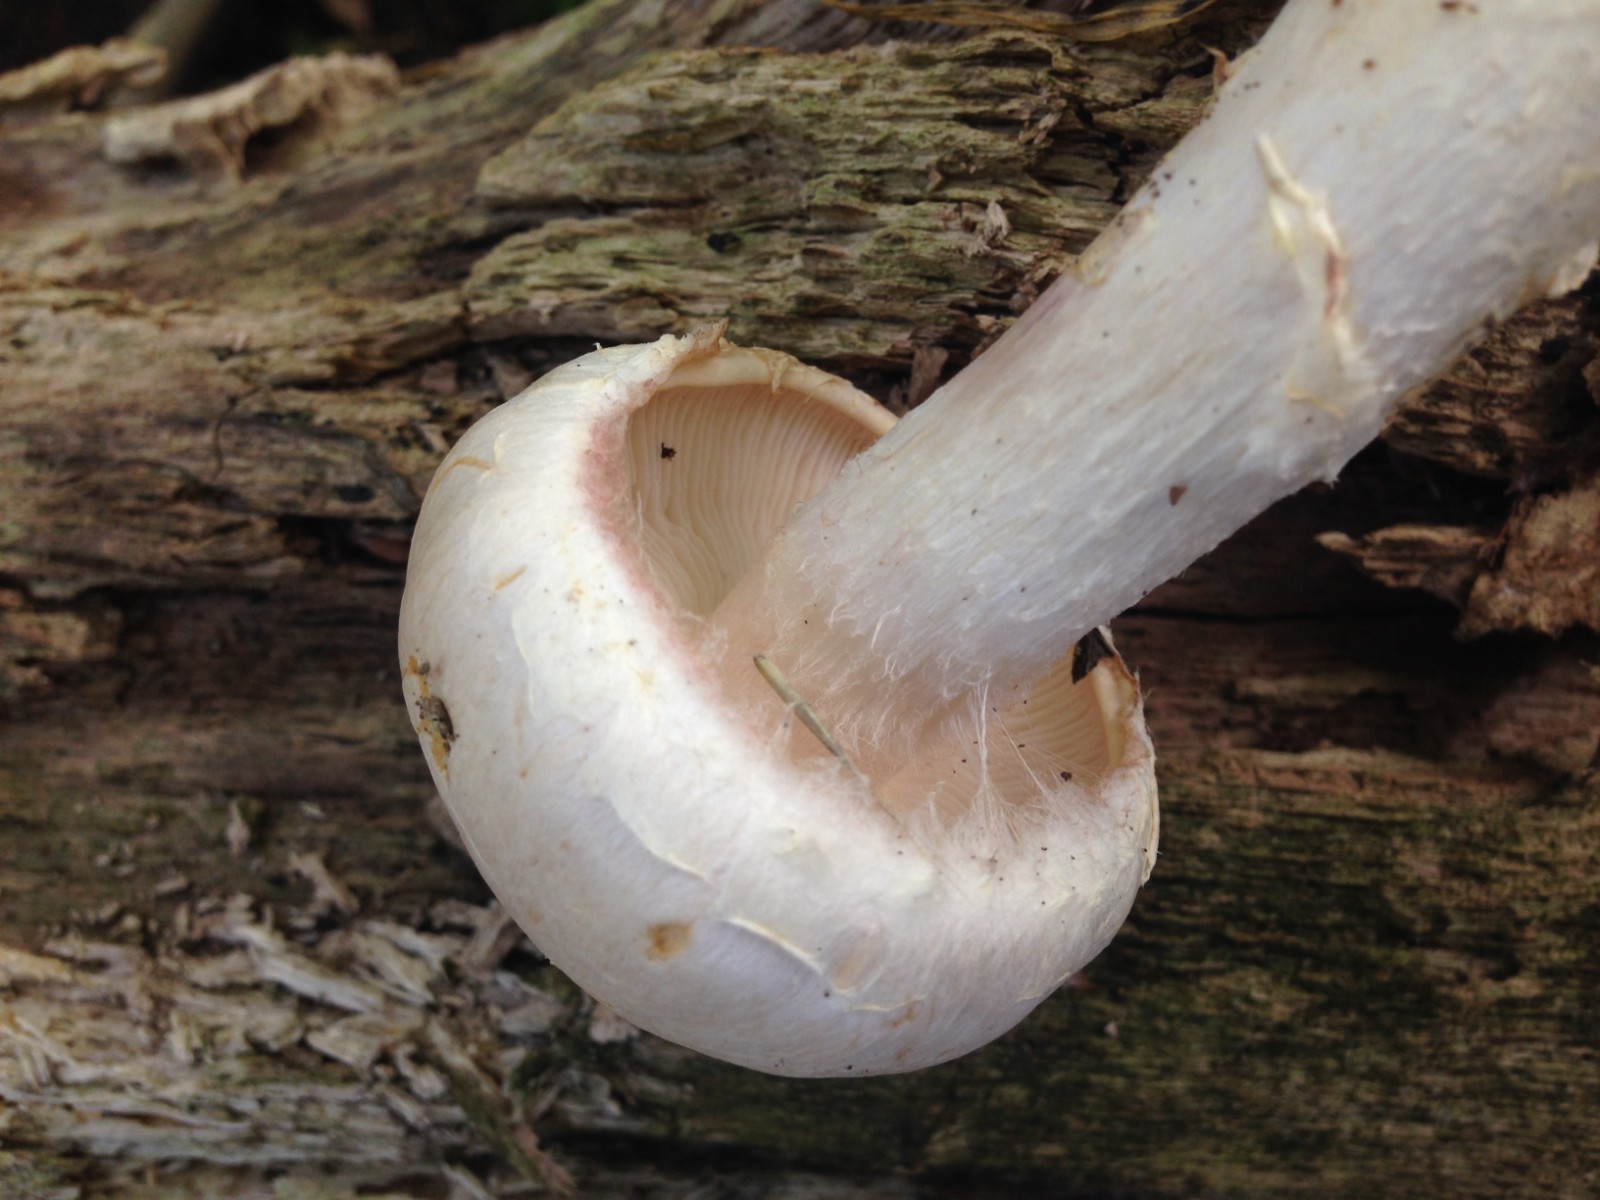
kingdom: Fungi
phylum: Basidiomycota
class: Agaricomycetes
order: Agaricales
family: Cortinariaceae
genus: Phlegmacium
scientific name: Phlegmacium argutum
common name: hvidlig slørhat
